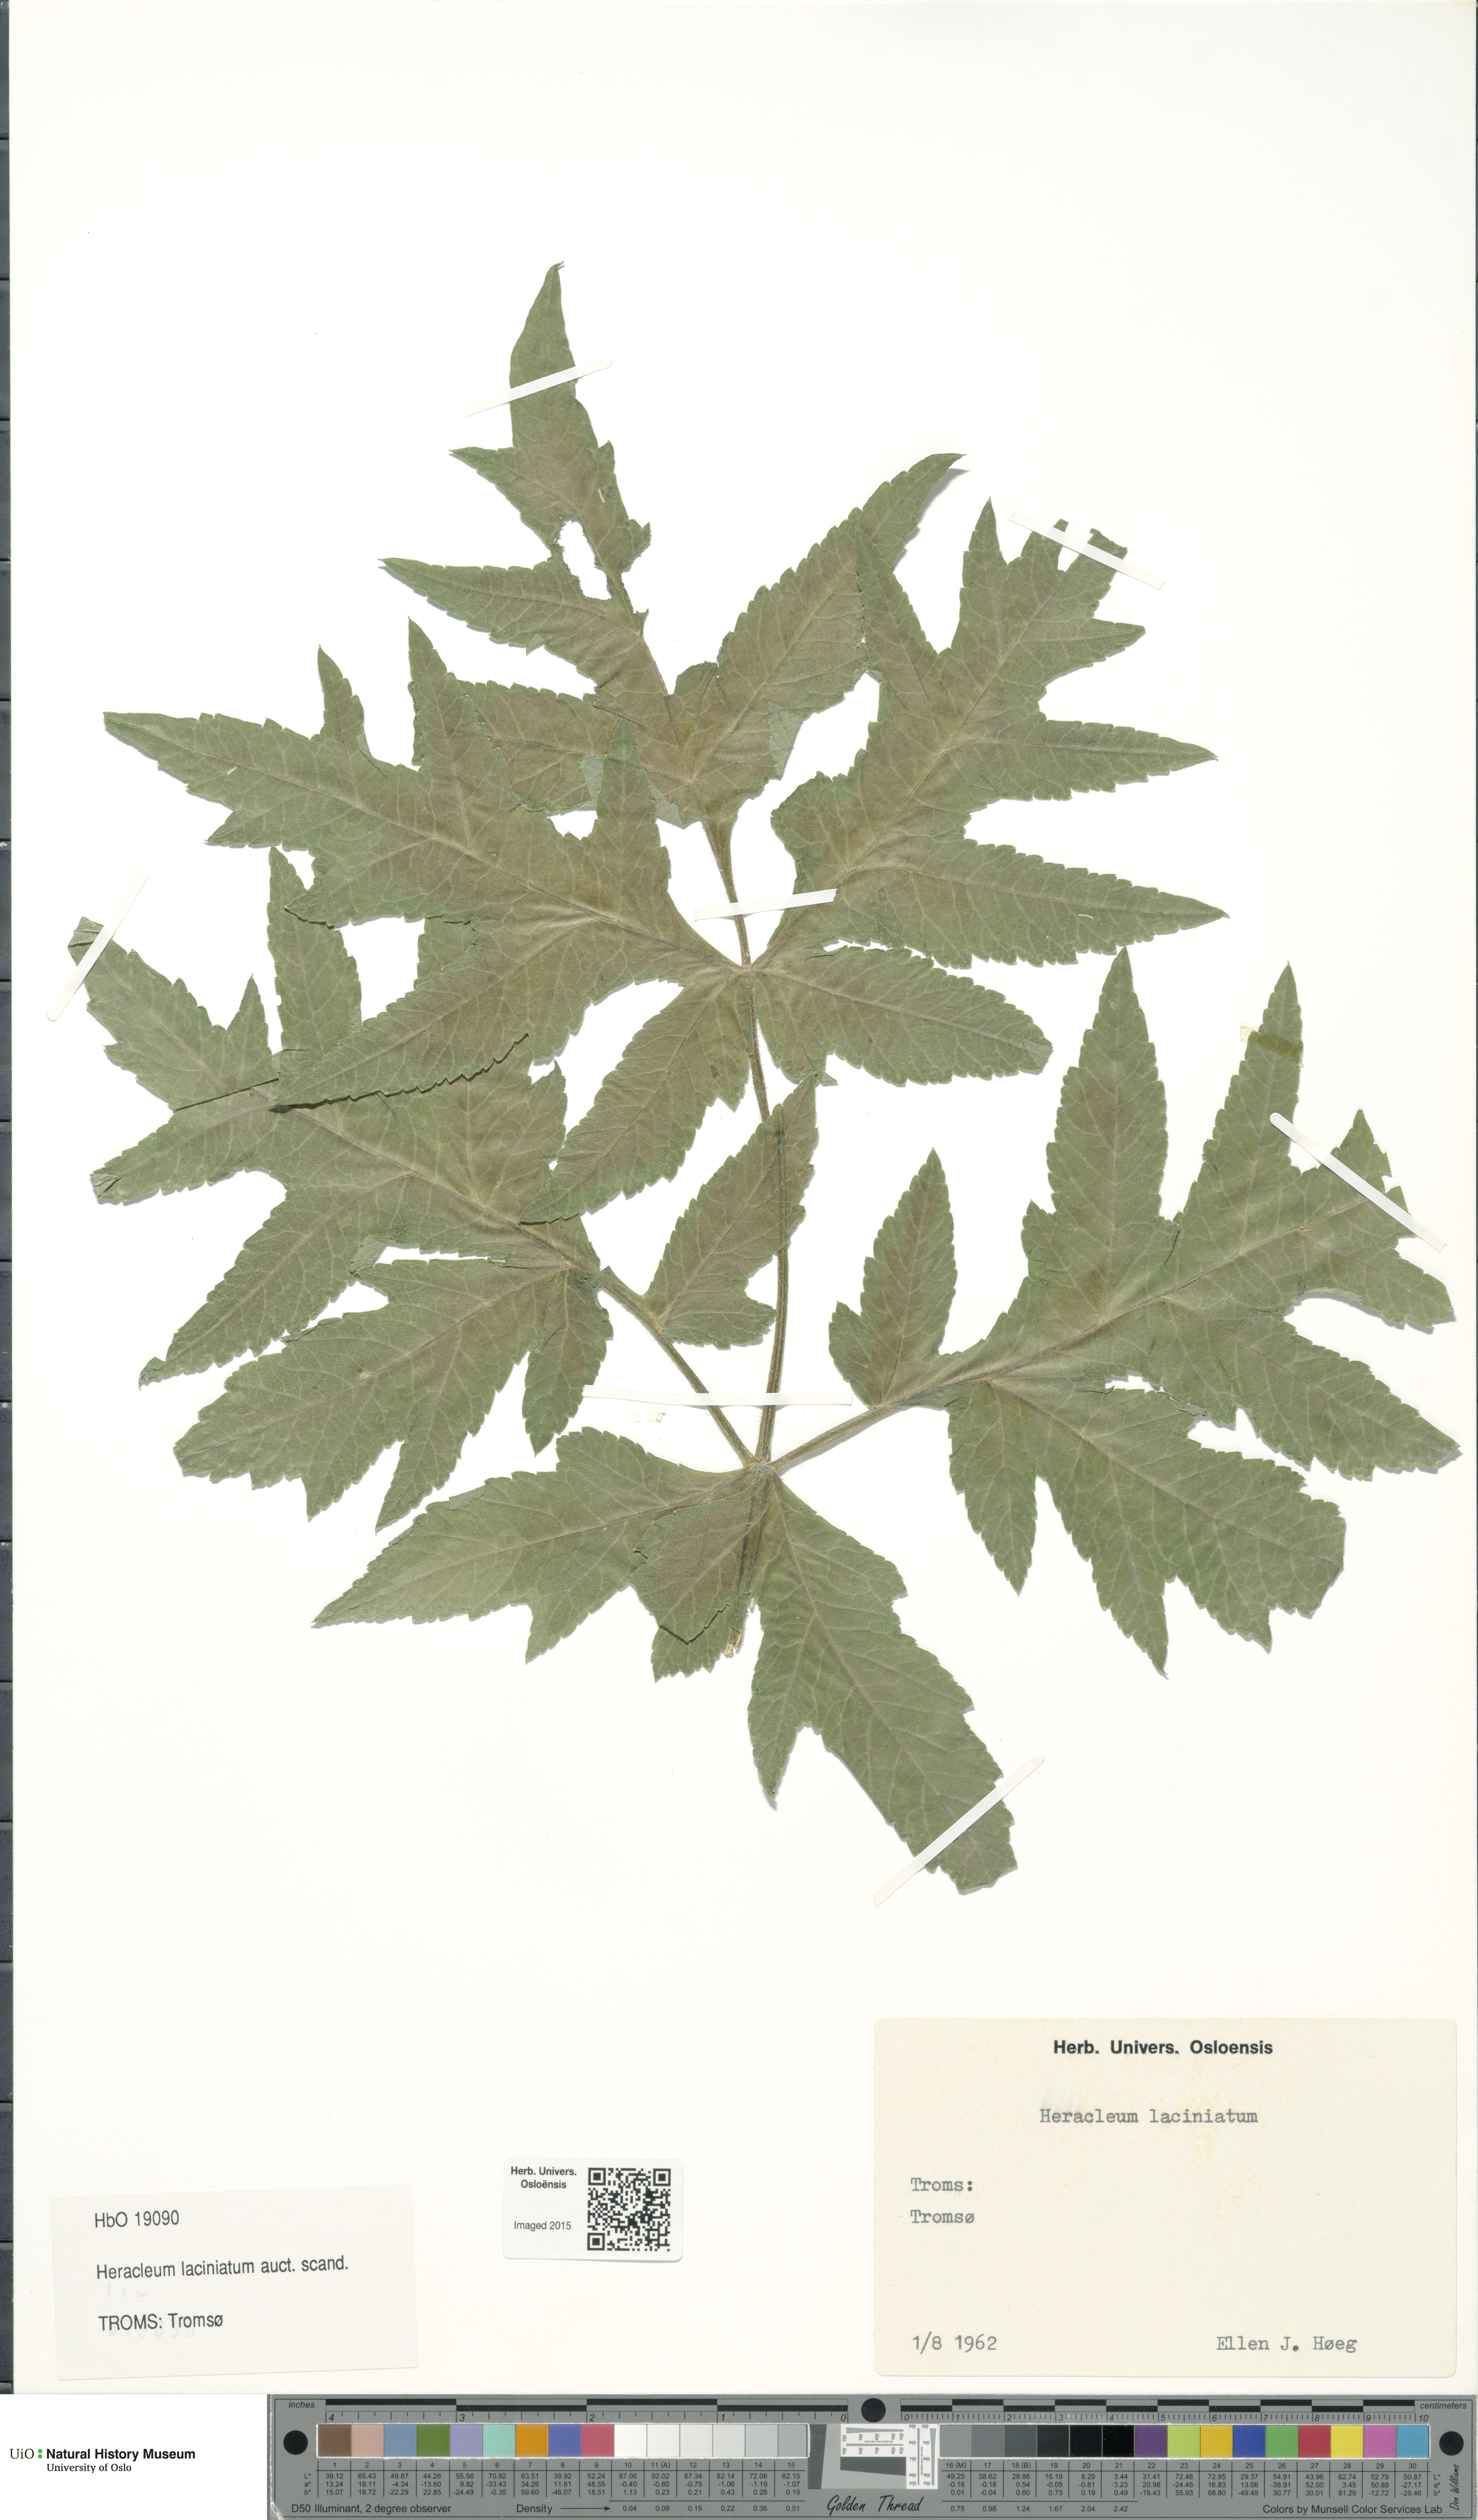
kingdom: Plantae
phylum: Tracheophyta
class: Magnoliopsida
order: Apiales
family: Apiaceae
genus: Heracleum
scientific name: Heracleum persicum
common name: Persian hogweed
